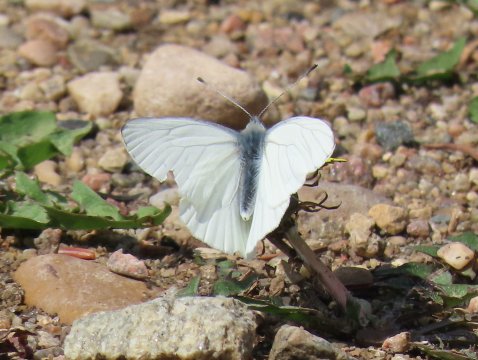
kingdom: Animalia
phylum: Arthropoda
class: Insecta
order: Lepidoptera
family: Pieridae
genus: Pieris
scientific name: Pieris oleracea
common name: Mustard White
